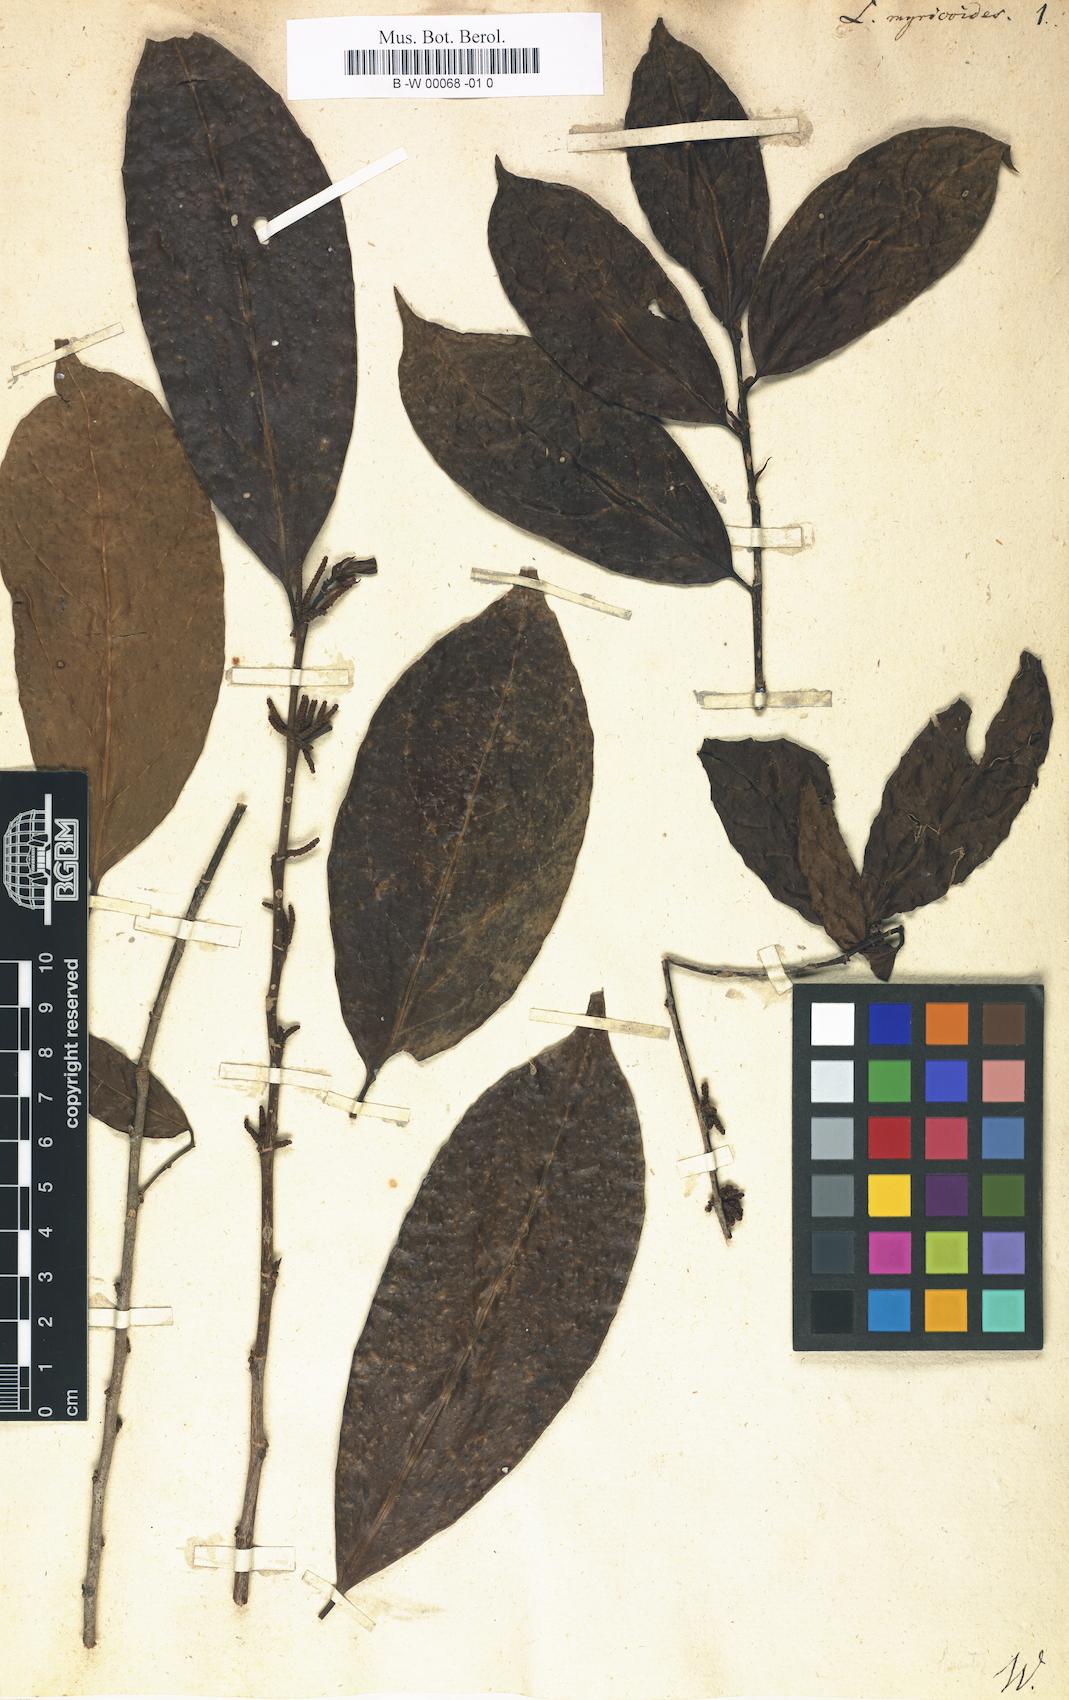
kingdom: Plantae
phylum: Tracheophyta
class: Magnoliopsida
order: Malpighiales
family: Lacistemataceae
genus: Lacistema
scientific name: Lacistema aggregatum
